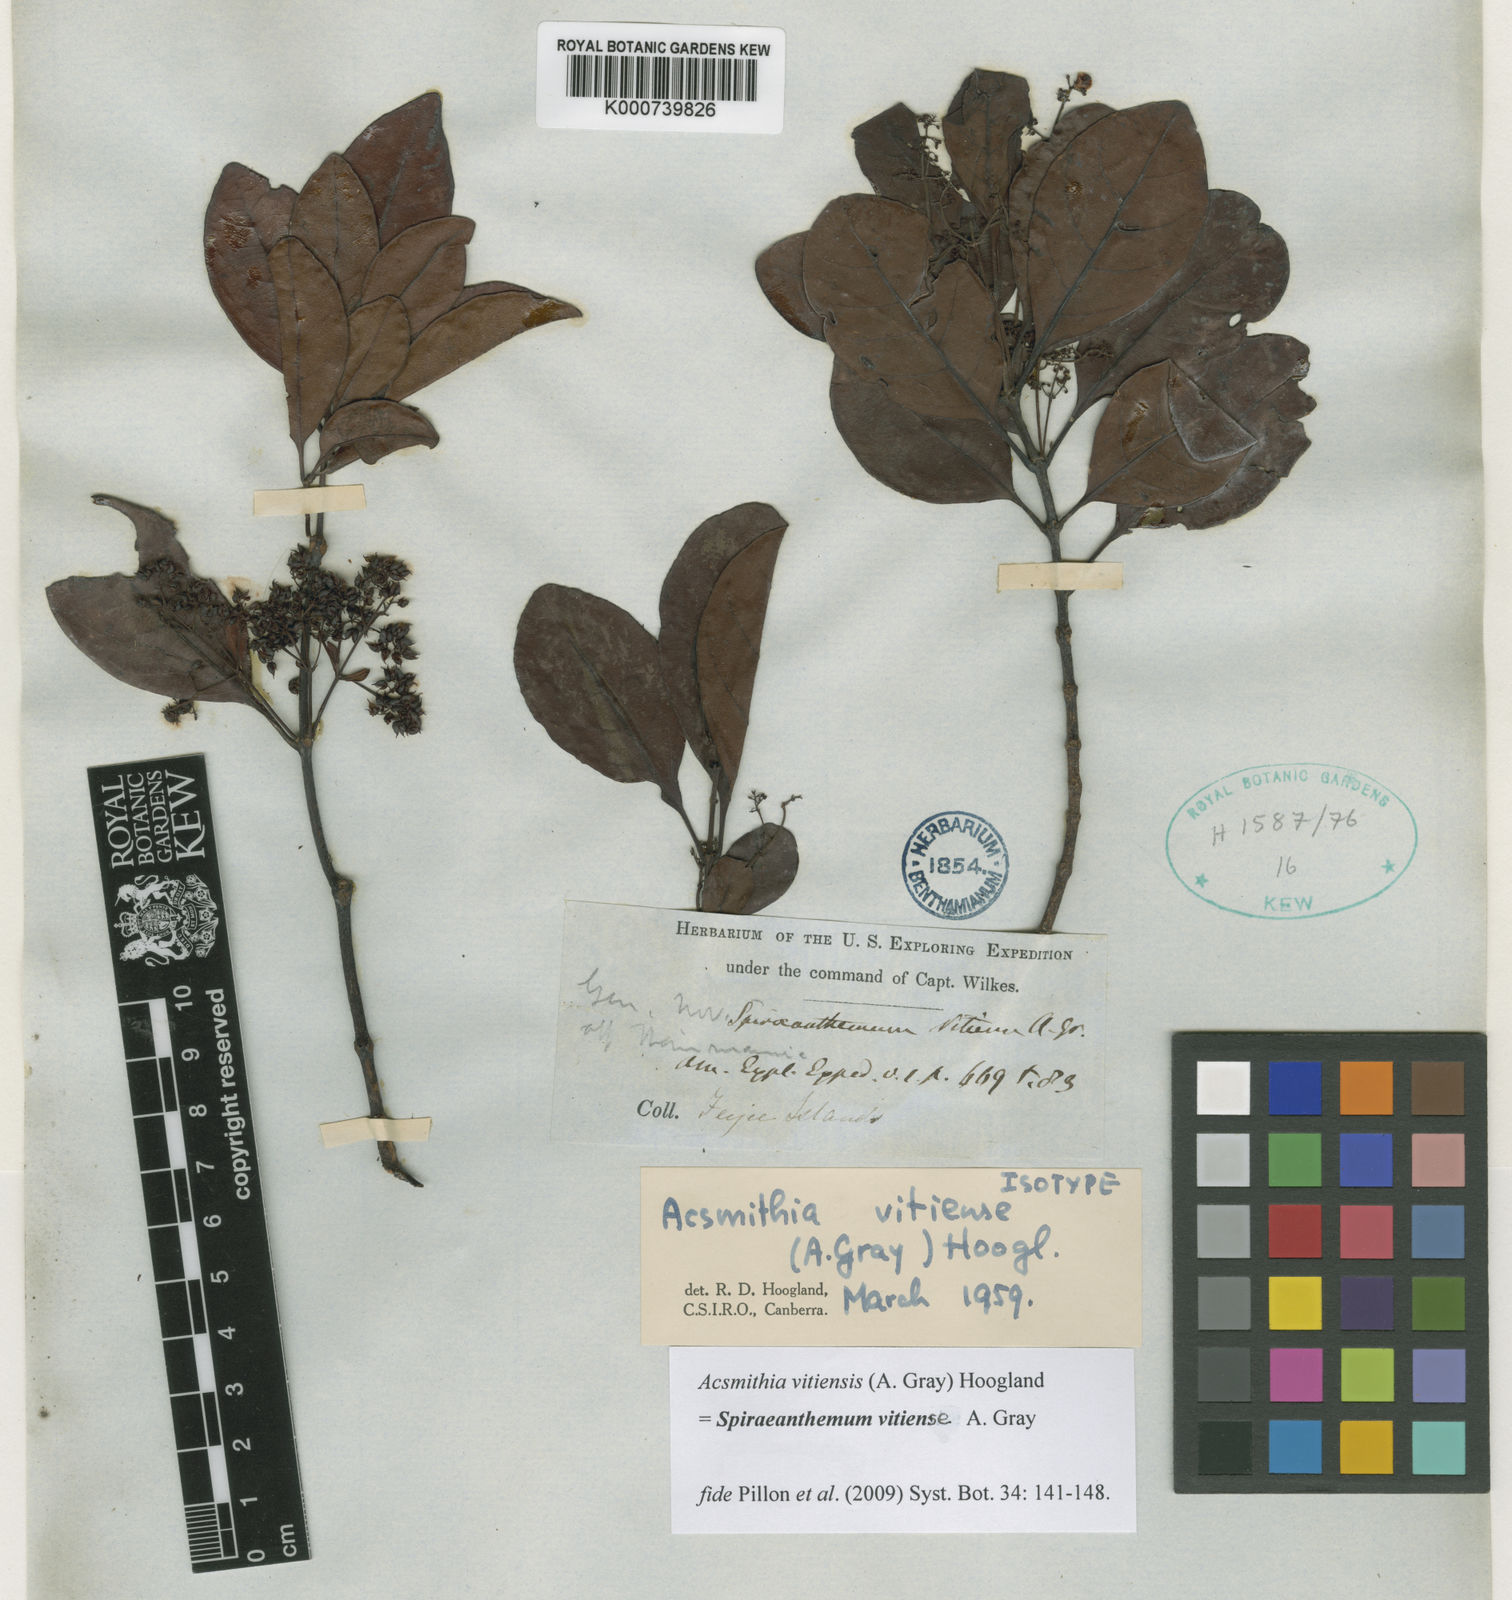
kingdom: Plantae
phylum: Tracheophyta
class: Magnoliopsida
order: Oxalidales
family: Cunoniaceae
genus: Spiraeanthemum
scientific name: Spiraeanthemum vitiense
